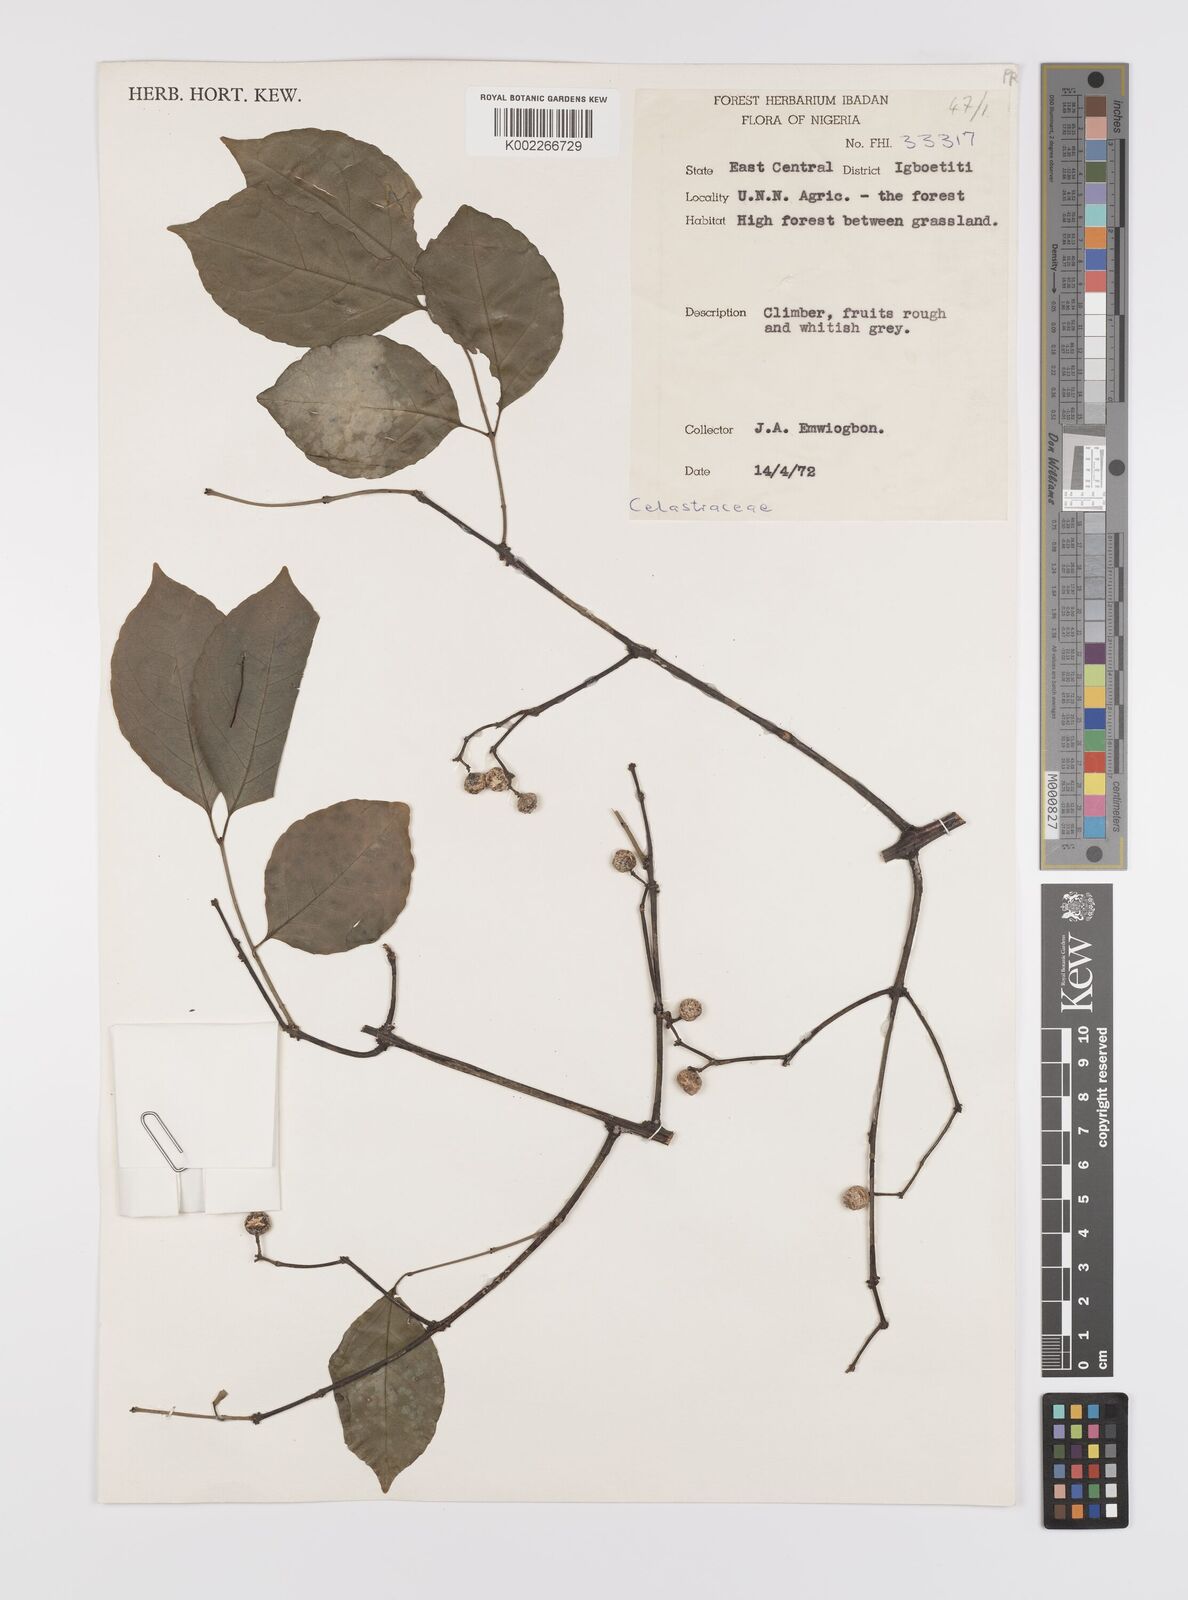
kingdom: Plantae
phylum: Tracheophyta
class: Magnoliopsida
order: Celastrales
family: Celastraceae
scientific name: Celastraceae
